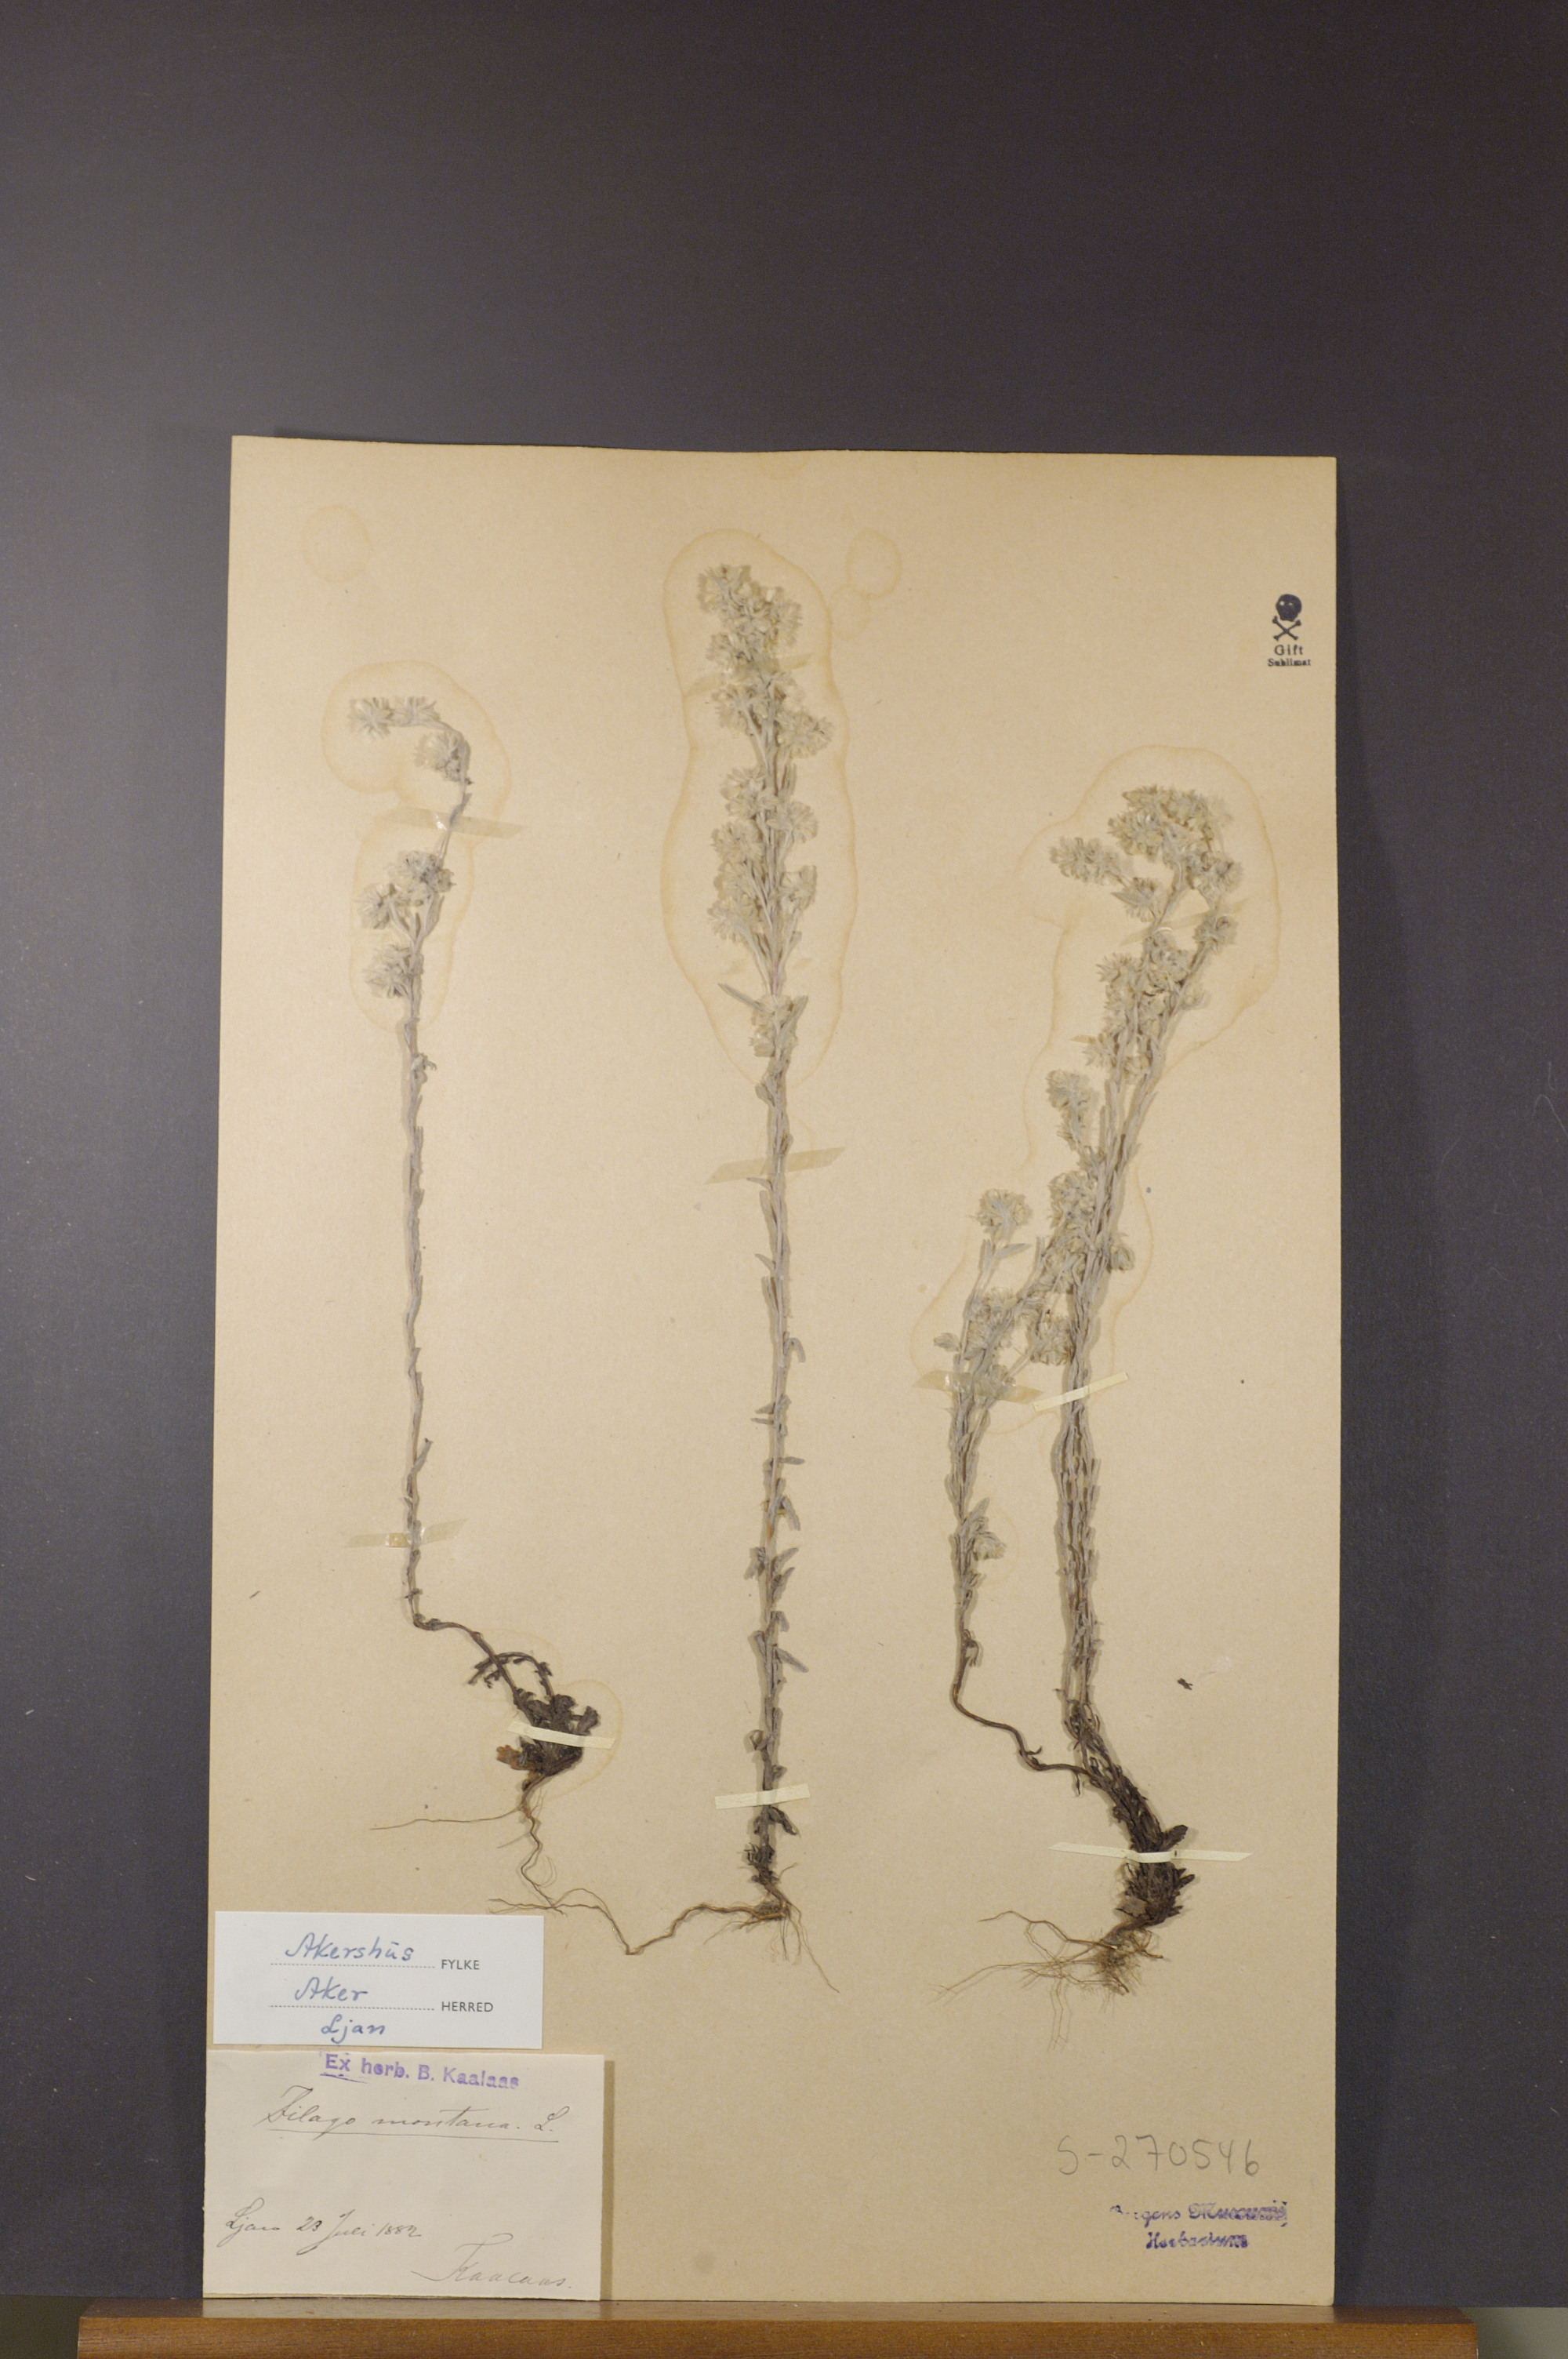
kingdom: Plantae
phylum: Tracheophyta
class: Magnoliopsida
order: Asterales
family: Asteraceae
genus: Filago
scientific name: Filago arvensis
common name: Field cudweed
